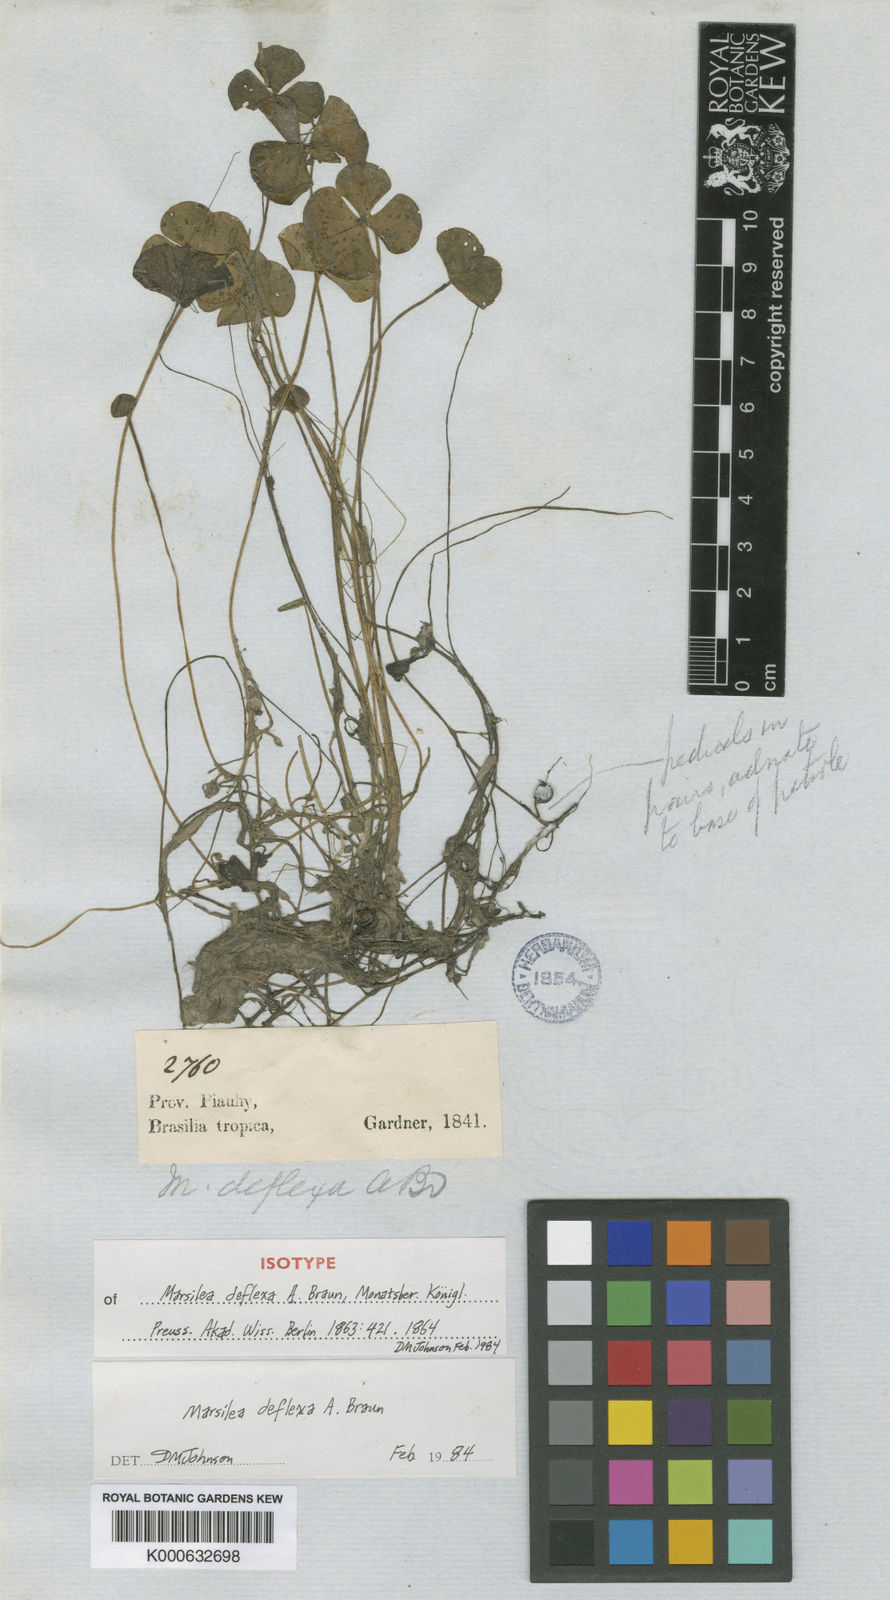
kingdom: Plantae
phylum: Tracheophyta
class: Polypodiopsida
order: Salviniales
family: Marsileaceae
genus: Marsilea
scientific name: Marsilea deflexa
